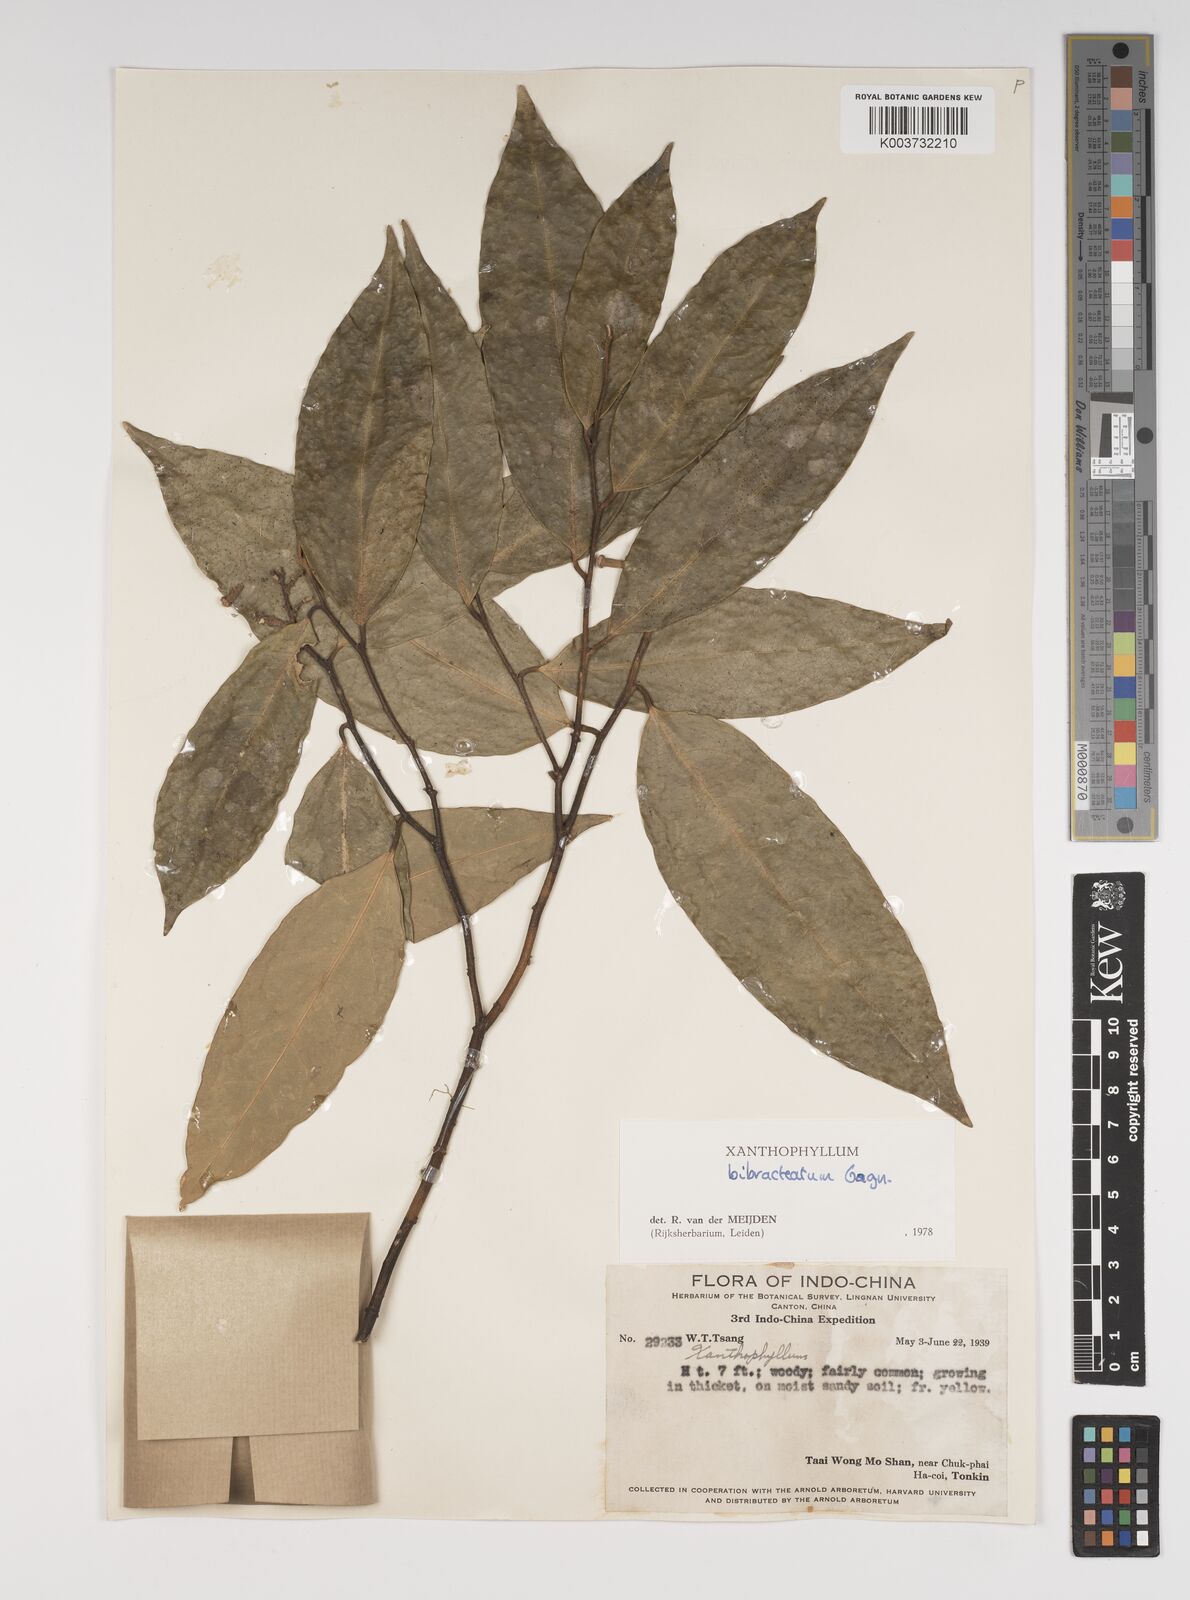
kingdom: Plantae
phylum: Tracheophyta
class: Magnoliopsida
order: Fabales
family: Polygalaceae
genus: Xanthophyllum
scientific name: Xanthophyllum bibracteatum
